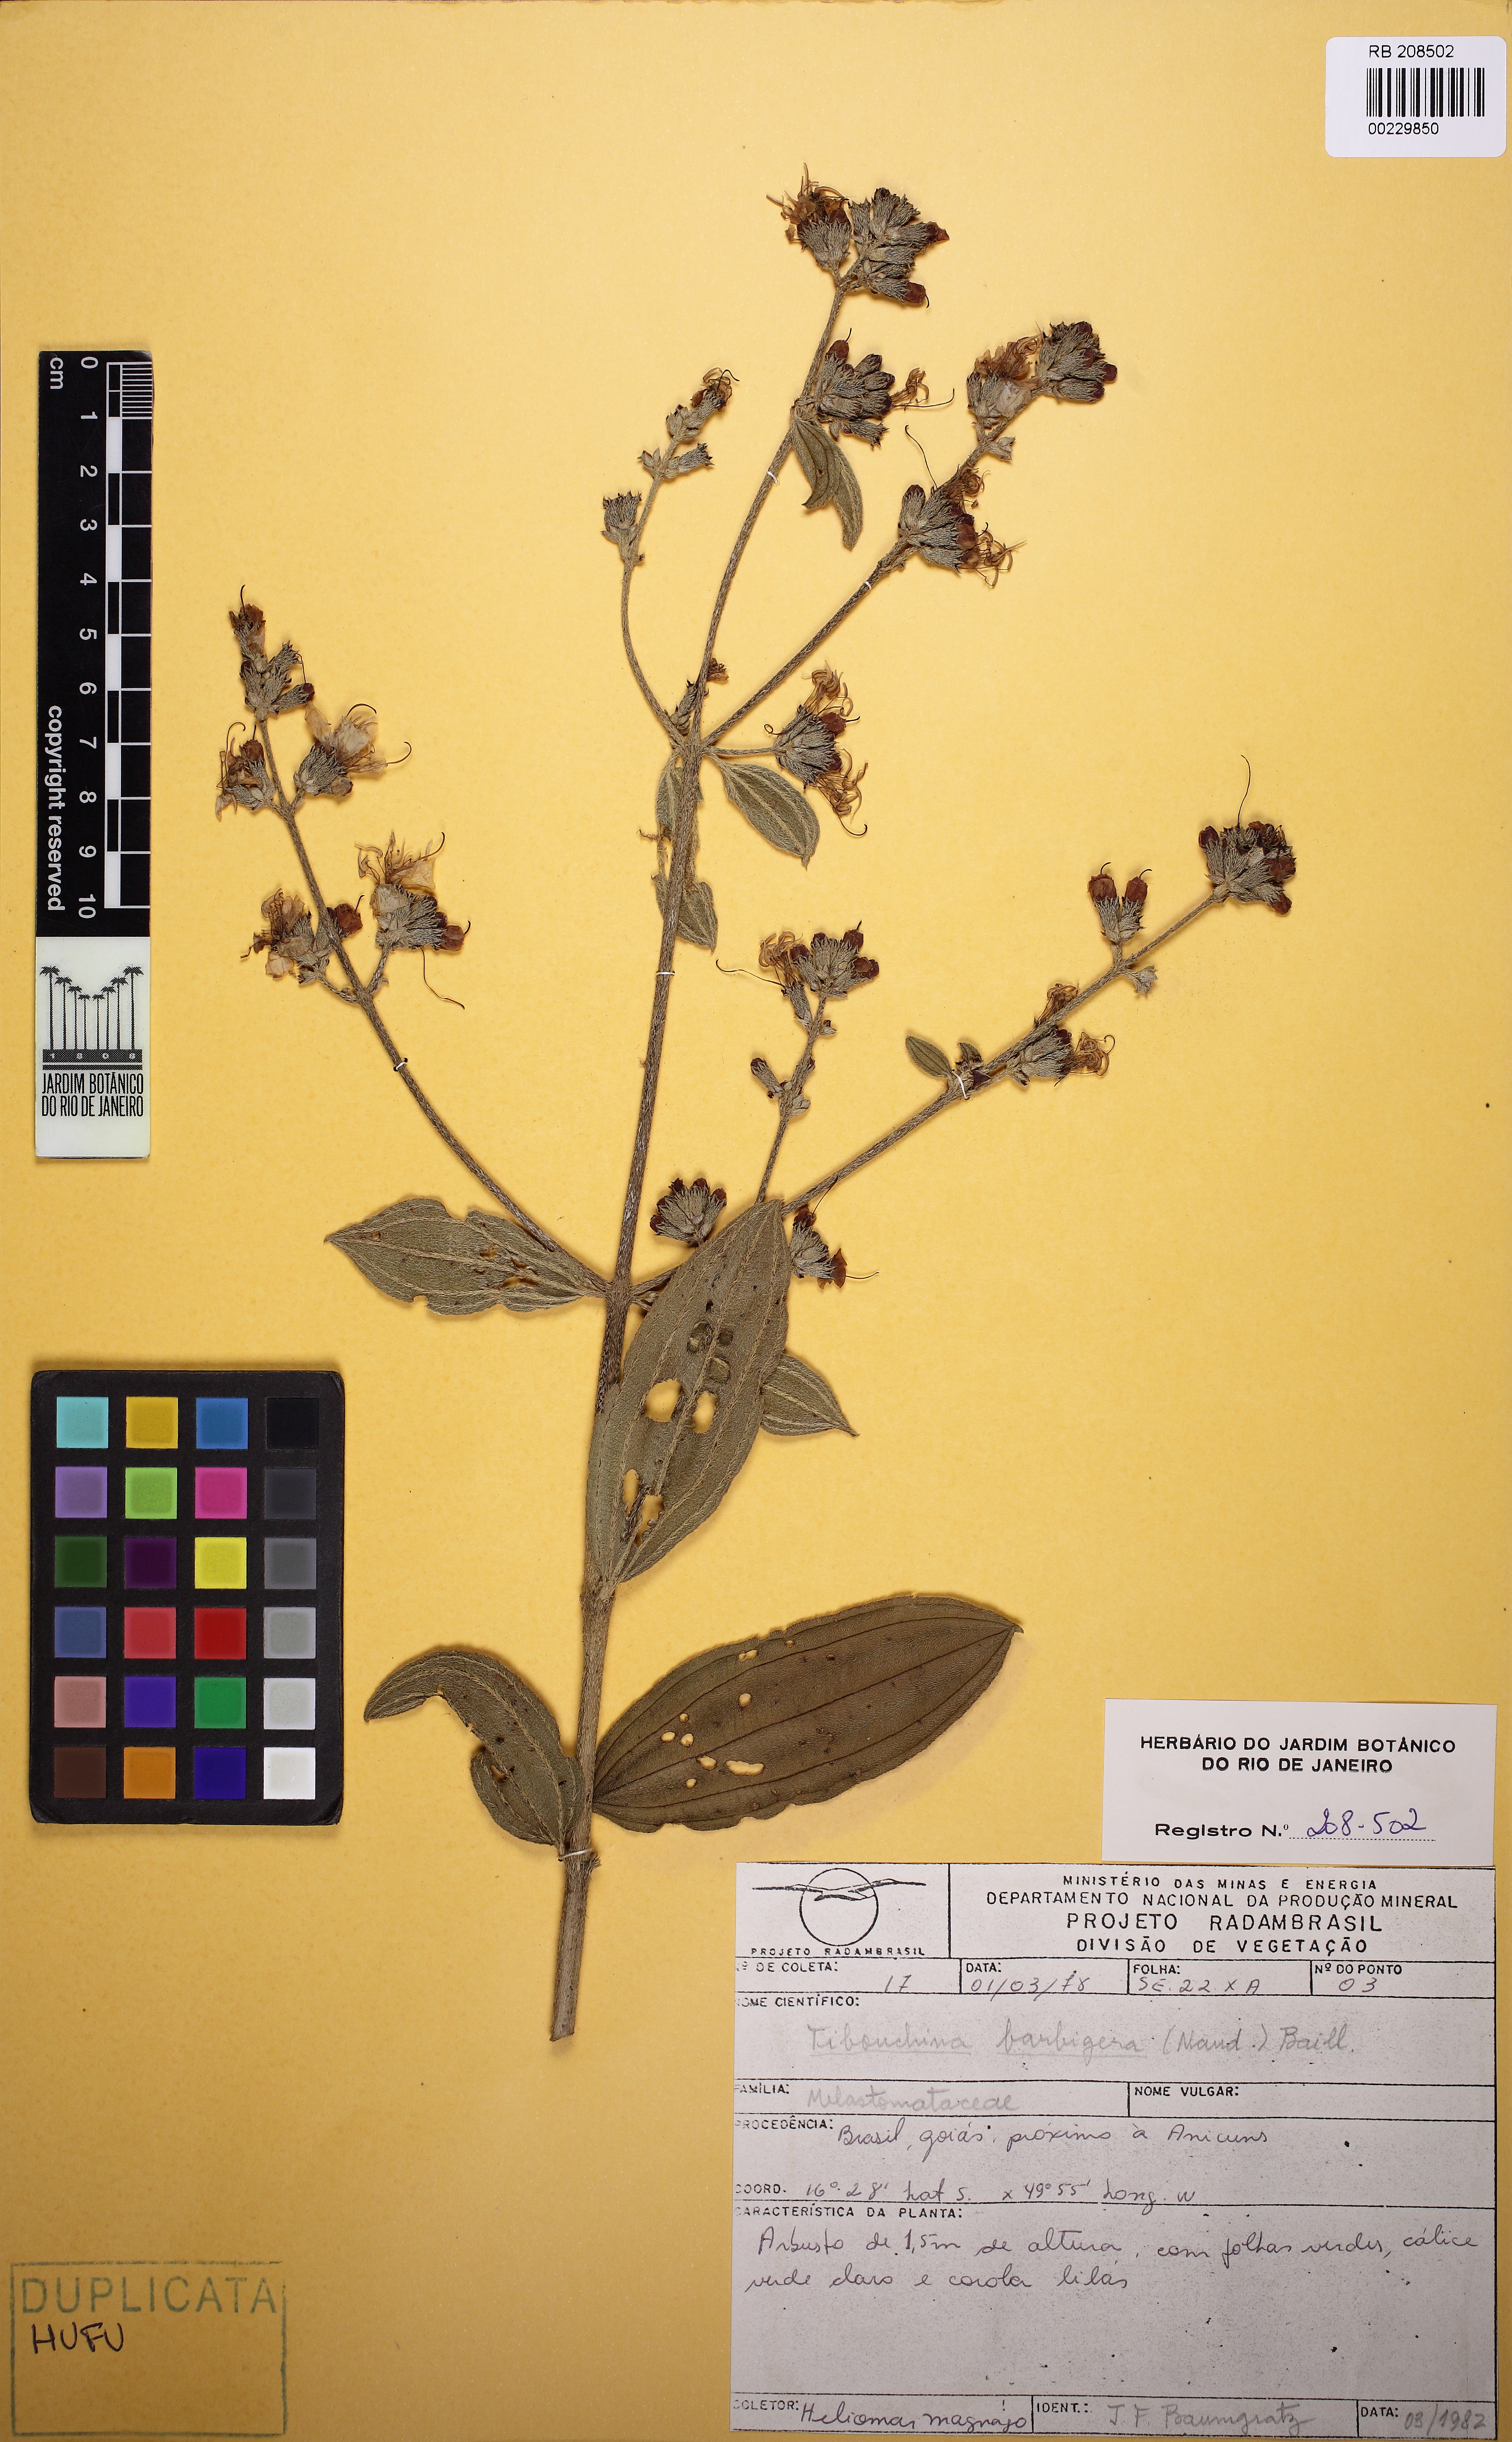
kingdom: Plantae
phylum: Tracheophyta
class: Magnoliopsida
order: Myrtales
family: Melastomataceae
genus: Pleroma
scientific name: Pleroma barbigerum
